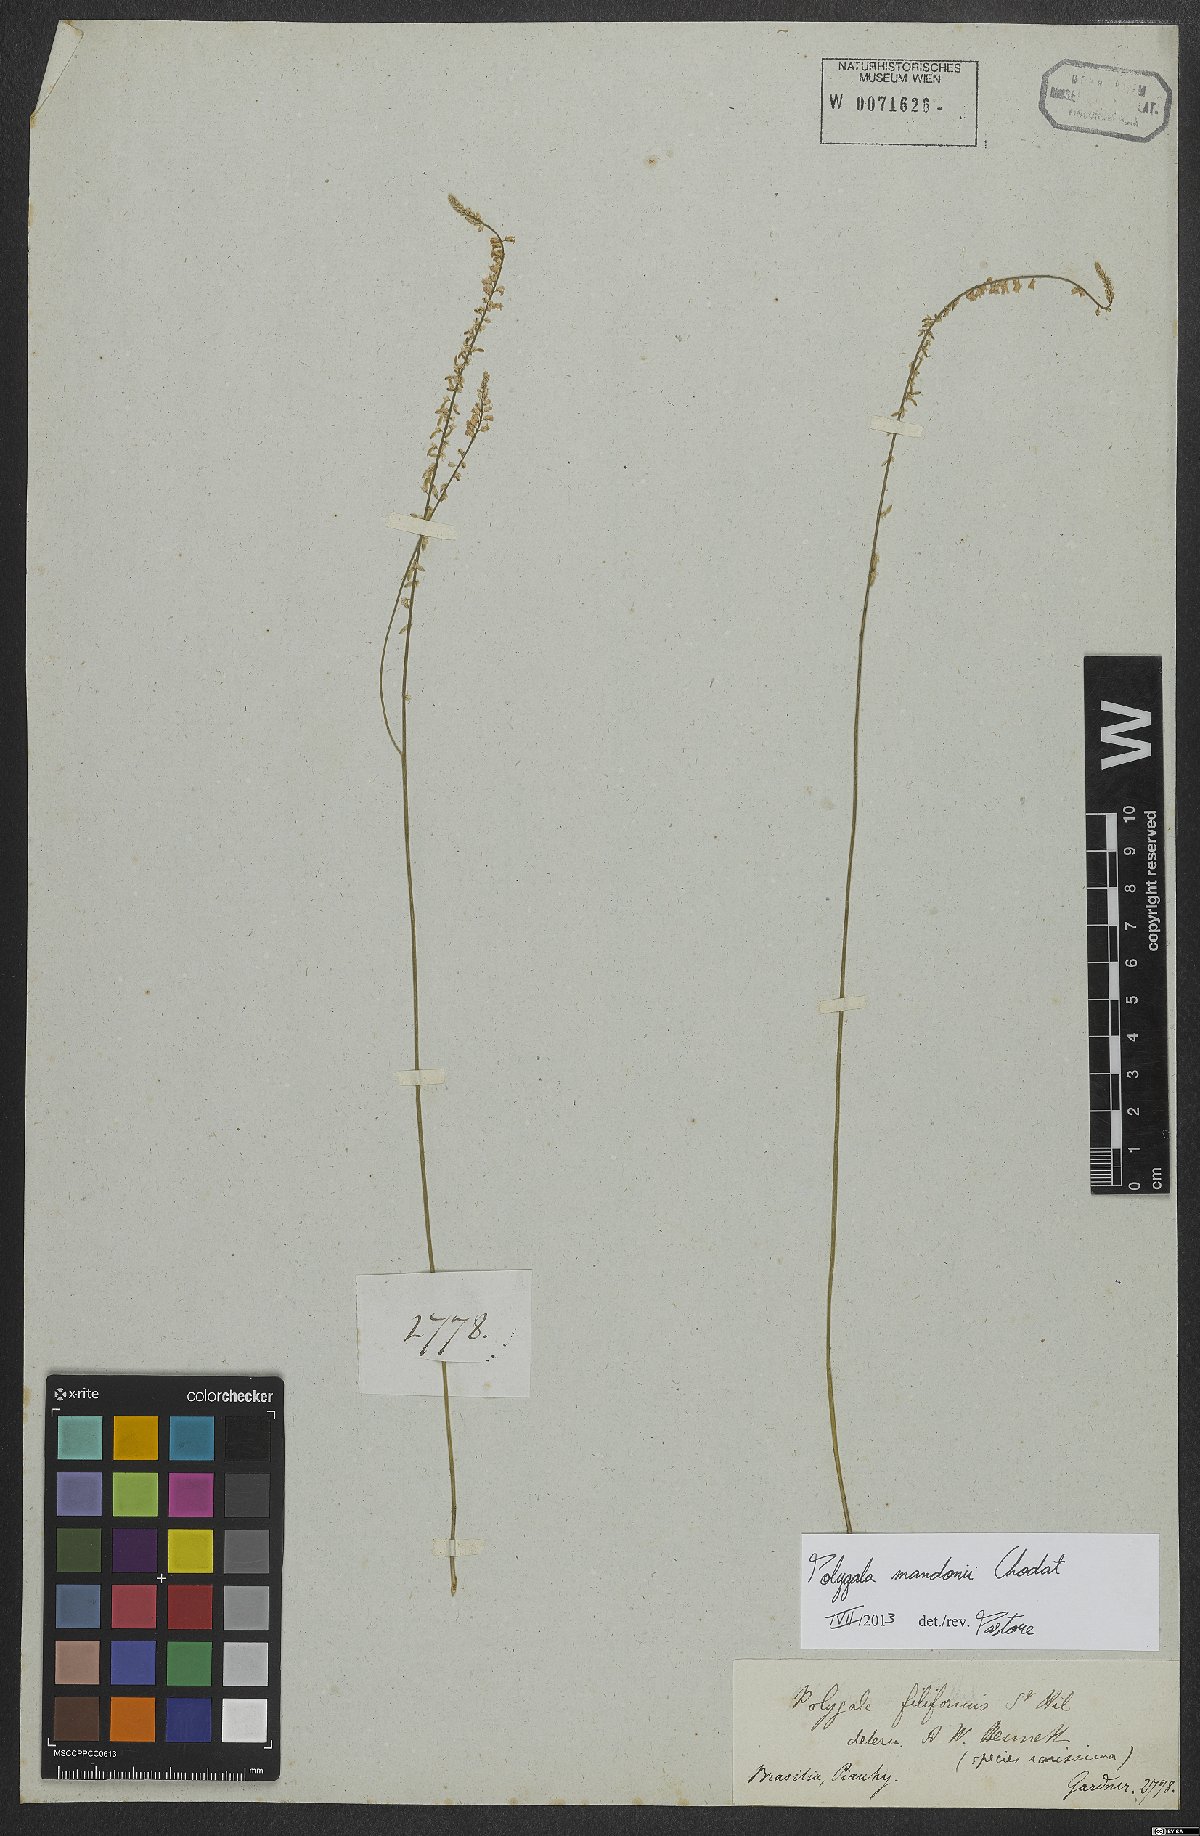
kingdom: Plantae
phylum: Tracheophyta
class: Magnoliopsida
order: Fabales
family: Polygalaceae
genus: Polygala
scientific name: Polygala mandonii
